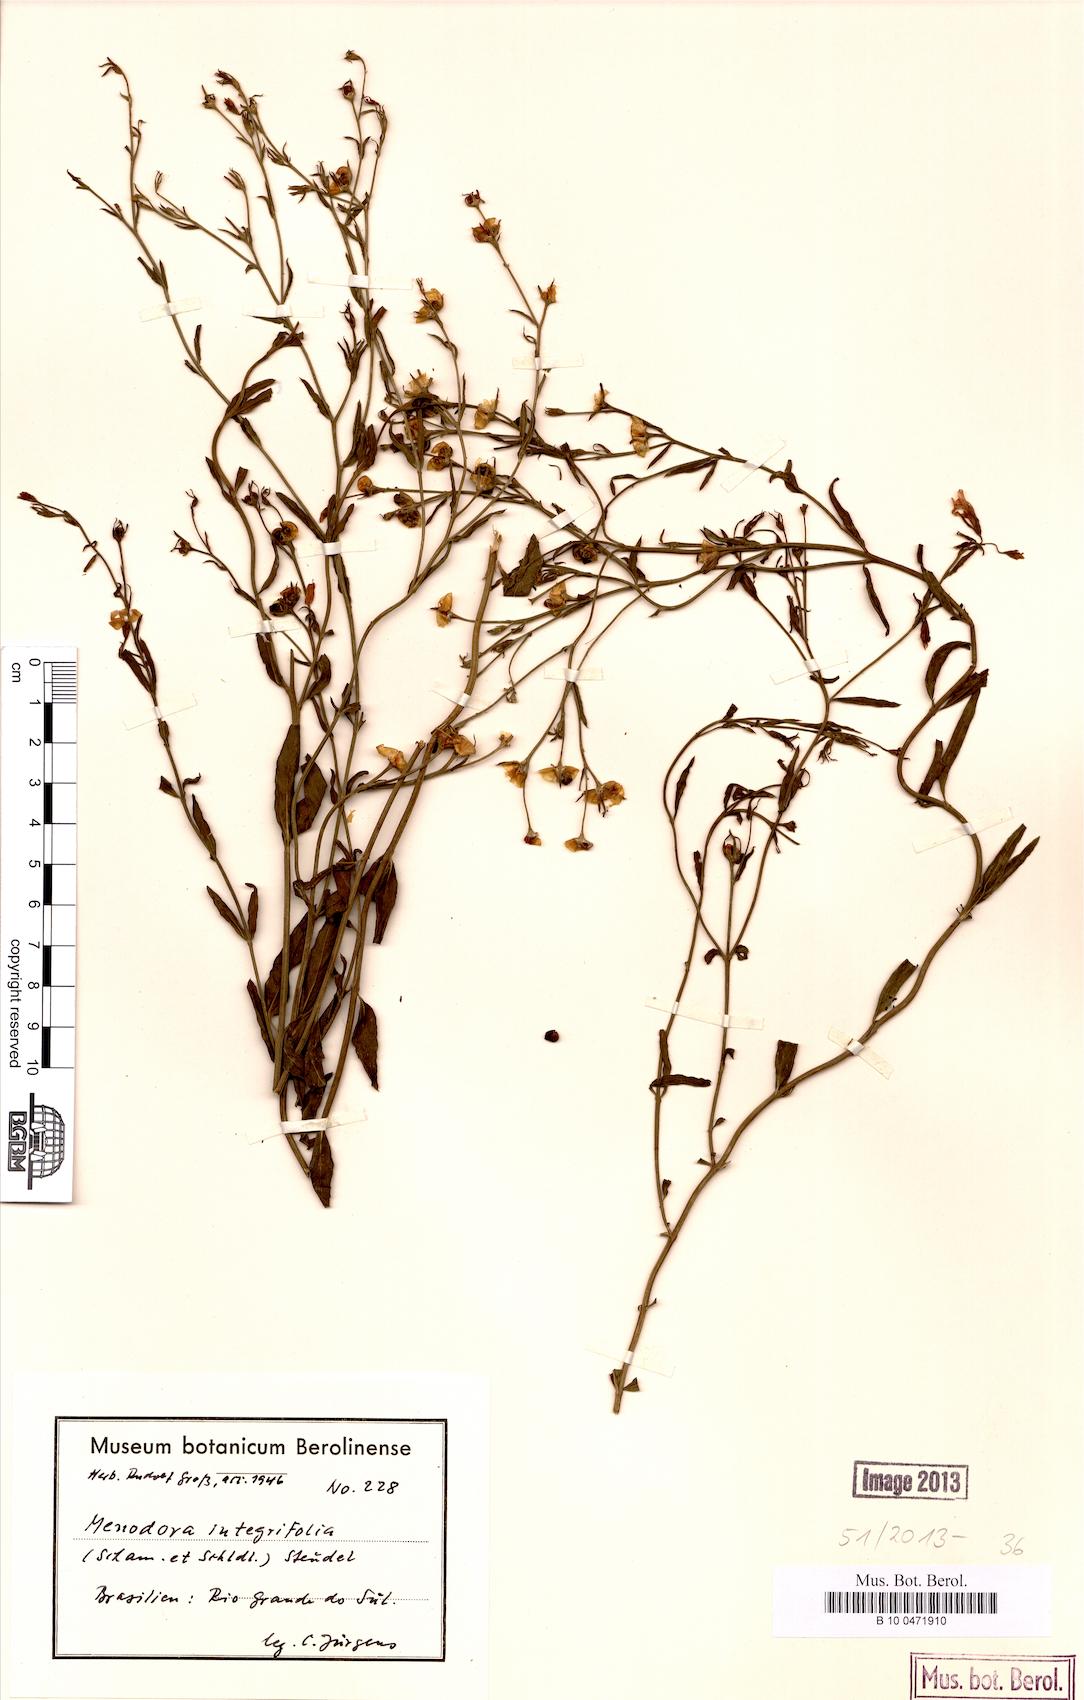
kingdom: Plantae
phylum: Tracheophyta
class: Magnoliopsida
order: Lamiales
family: Oleaceae
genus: Menodora
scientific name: Menodora integrifolia
